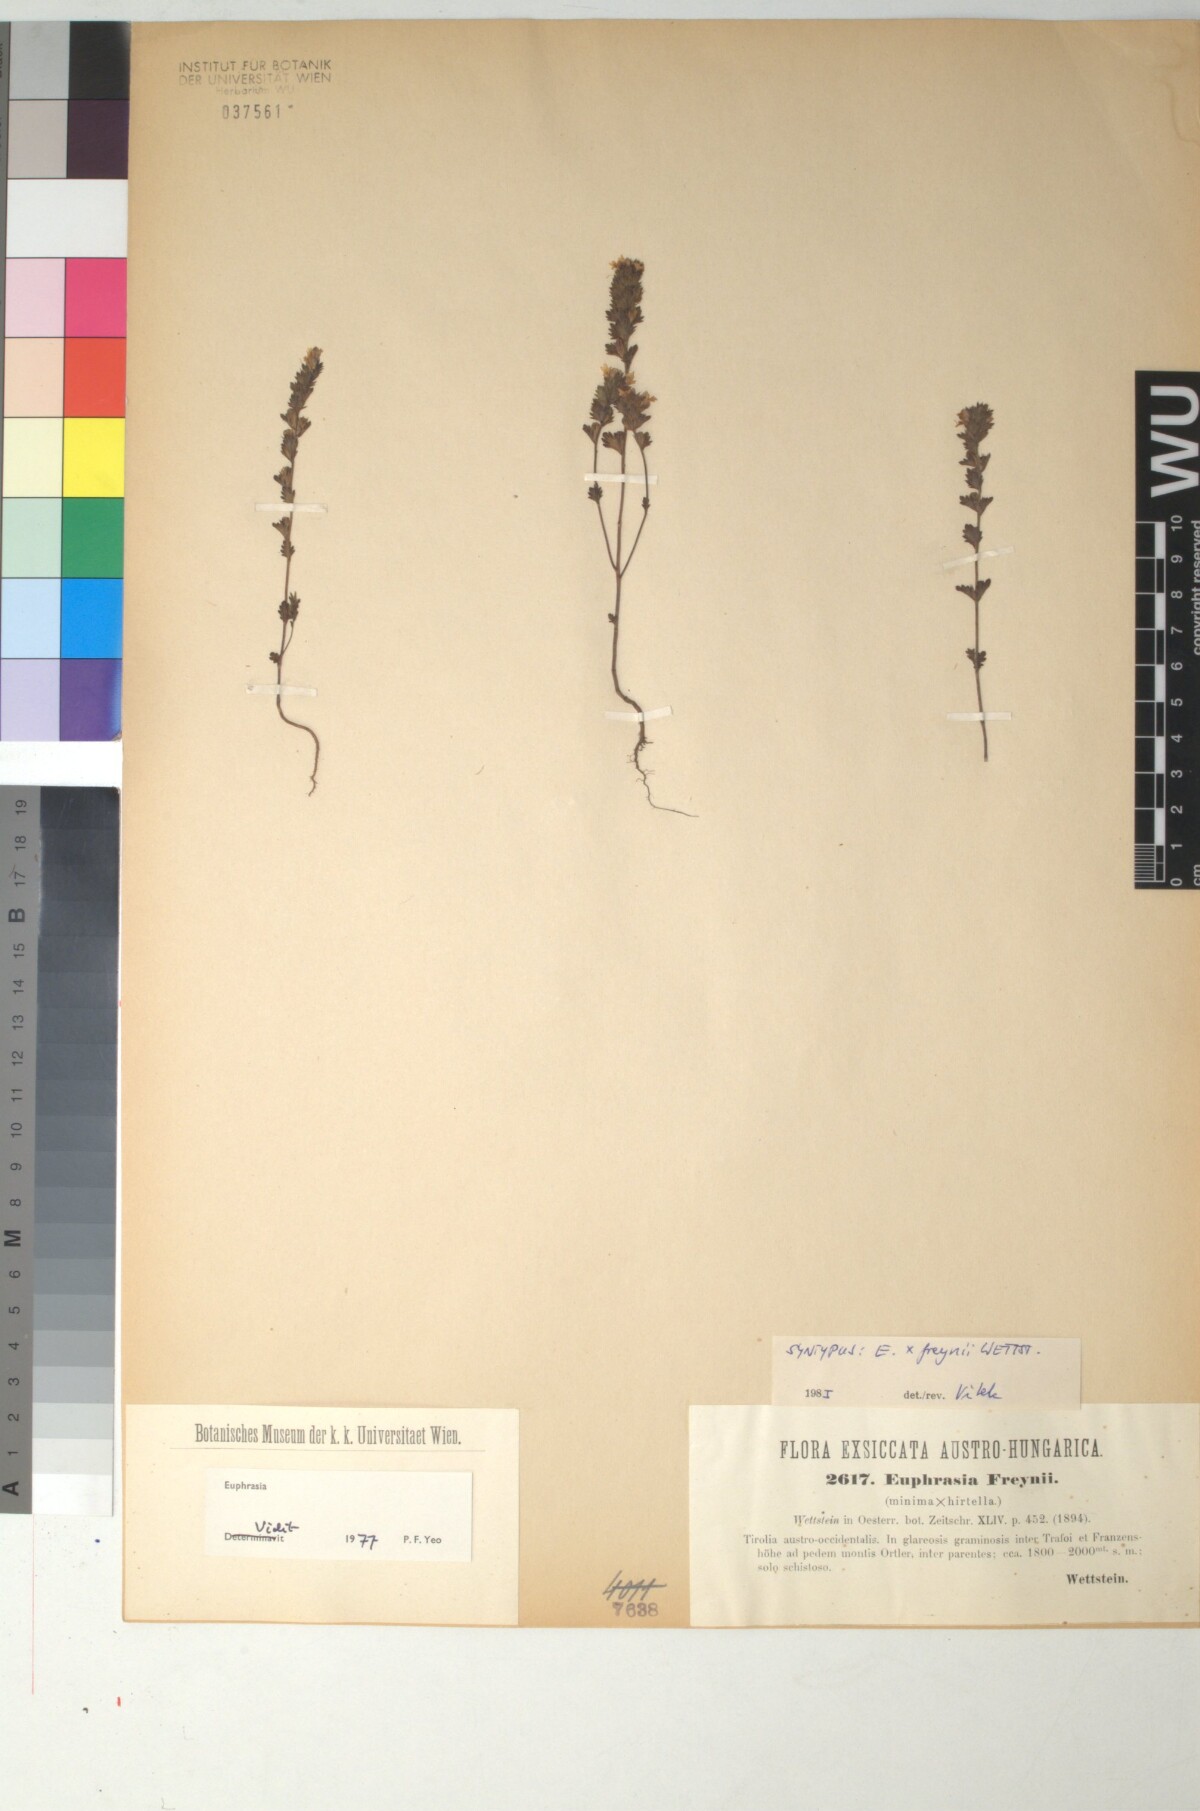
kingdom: Plantae
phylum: Tracheophyta
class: Magnoliopsida
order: Lamiales
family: Scrophulariaceae
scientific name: Scrophulariaceae
